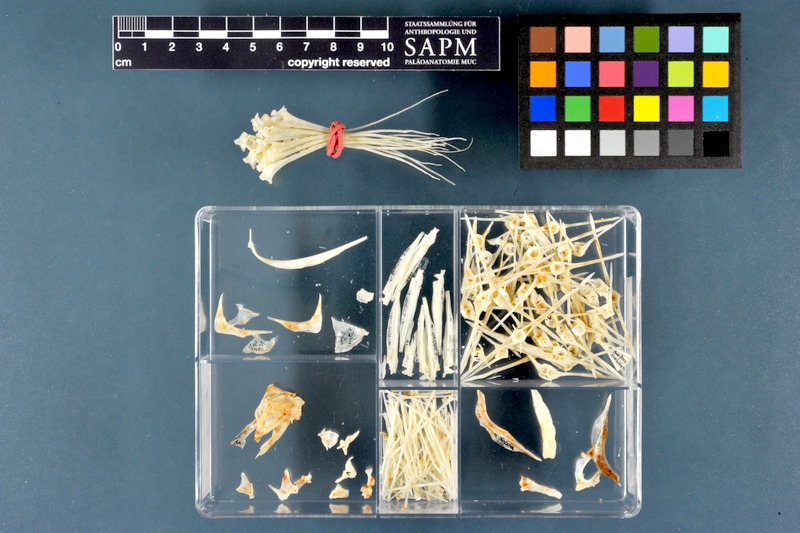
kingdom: Animalia
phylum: Chordata
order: Pleuronectiformes
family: Soleidae
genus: Solea
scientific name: Solea solea
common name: Sole
